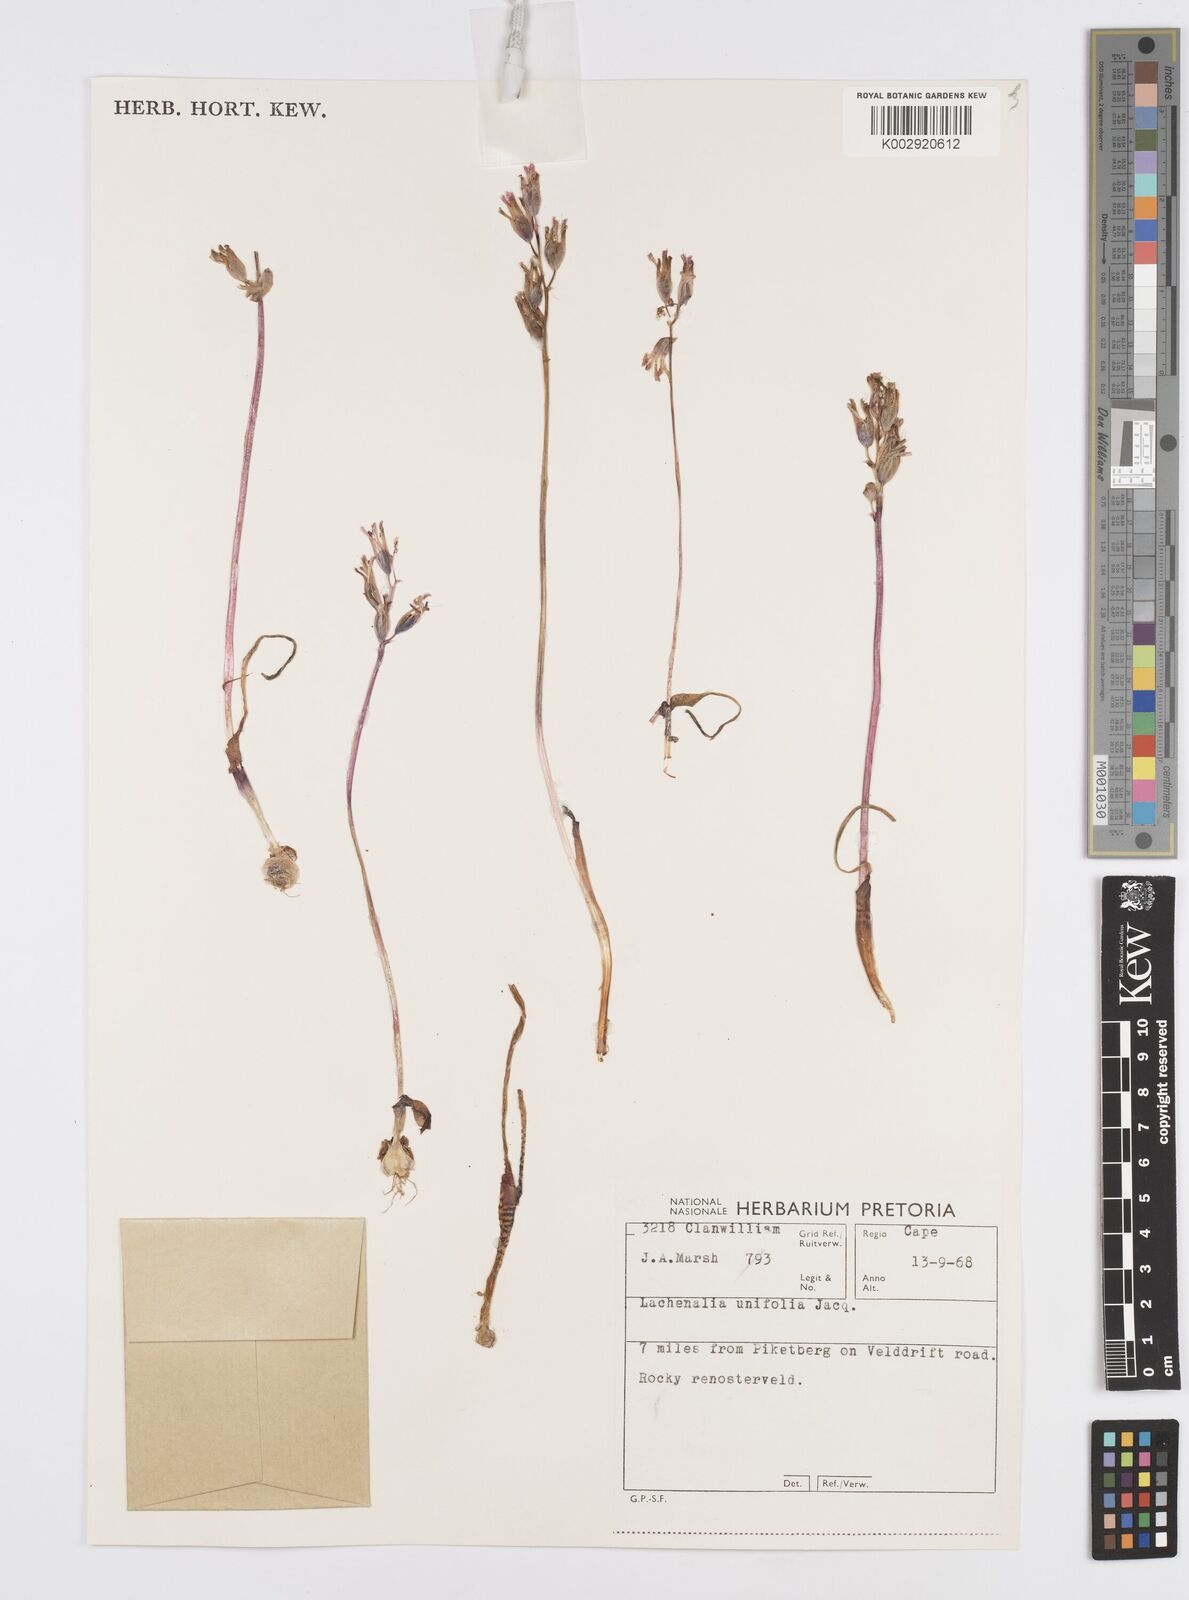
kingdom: Plantae
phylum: Tracheophyta
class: Liliopsida
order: Asparagales
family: Asparagaceae
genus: Lachenalia
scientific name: Lachenalia unifolia
